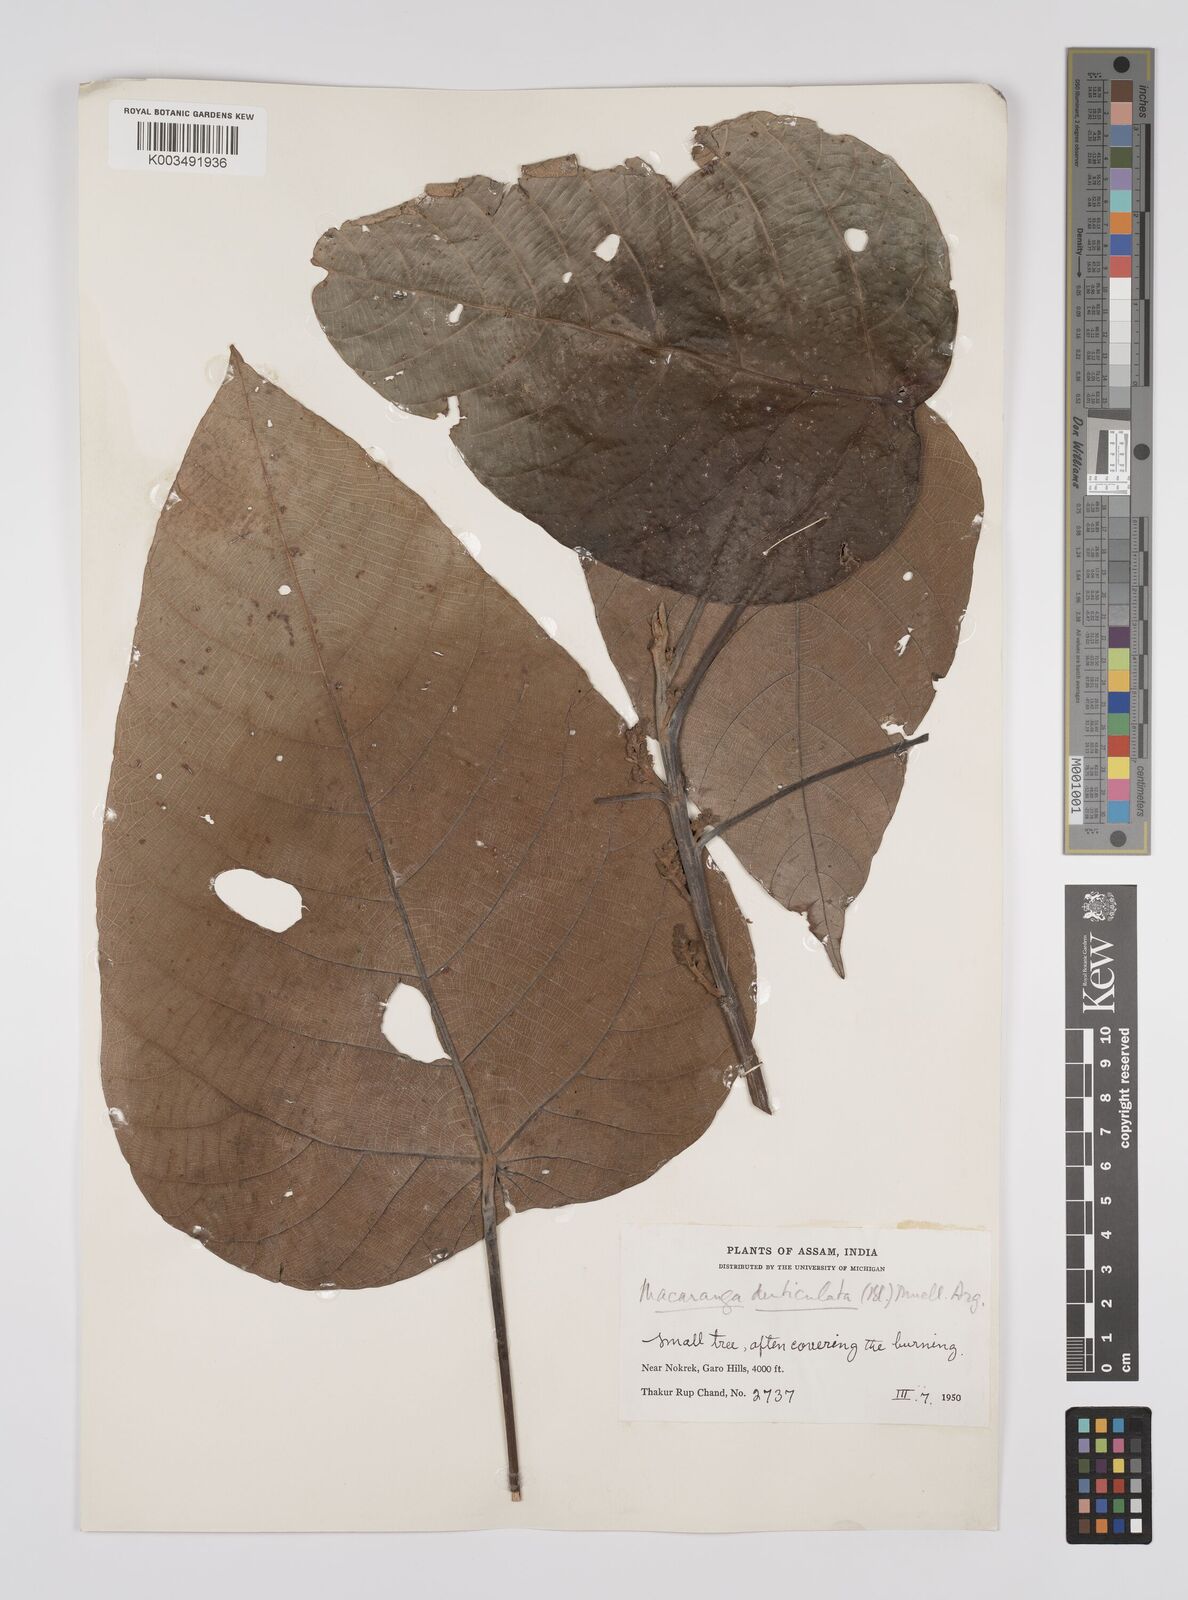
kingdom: Plantae
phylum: Tracheophyta
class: Magnoliopsida
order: Malpighiales
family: Euphorbiaceae
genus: Macaranga
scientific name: Macaranga denticulata
